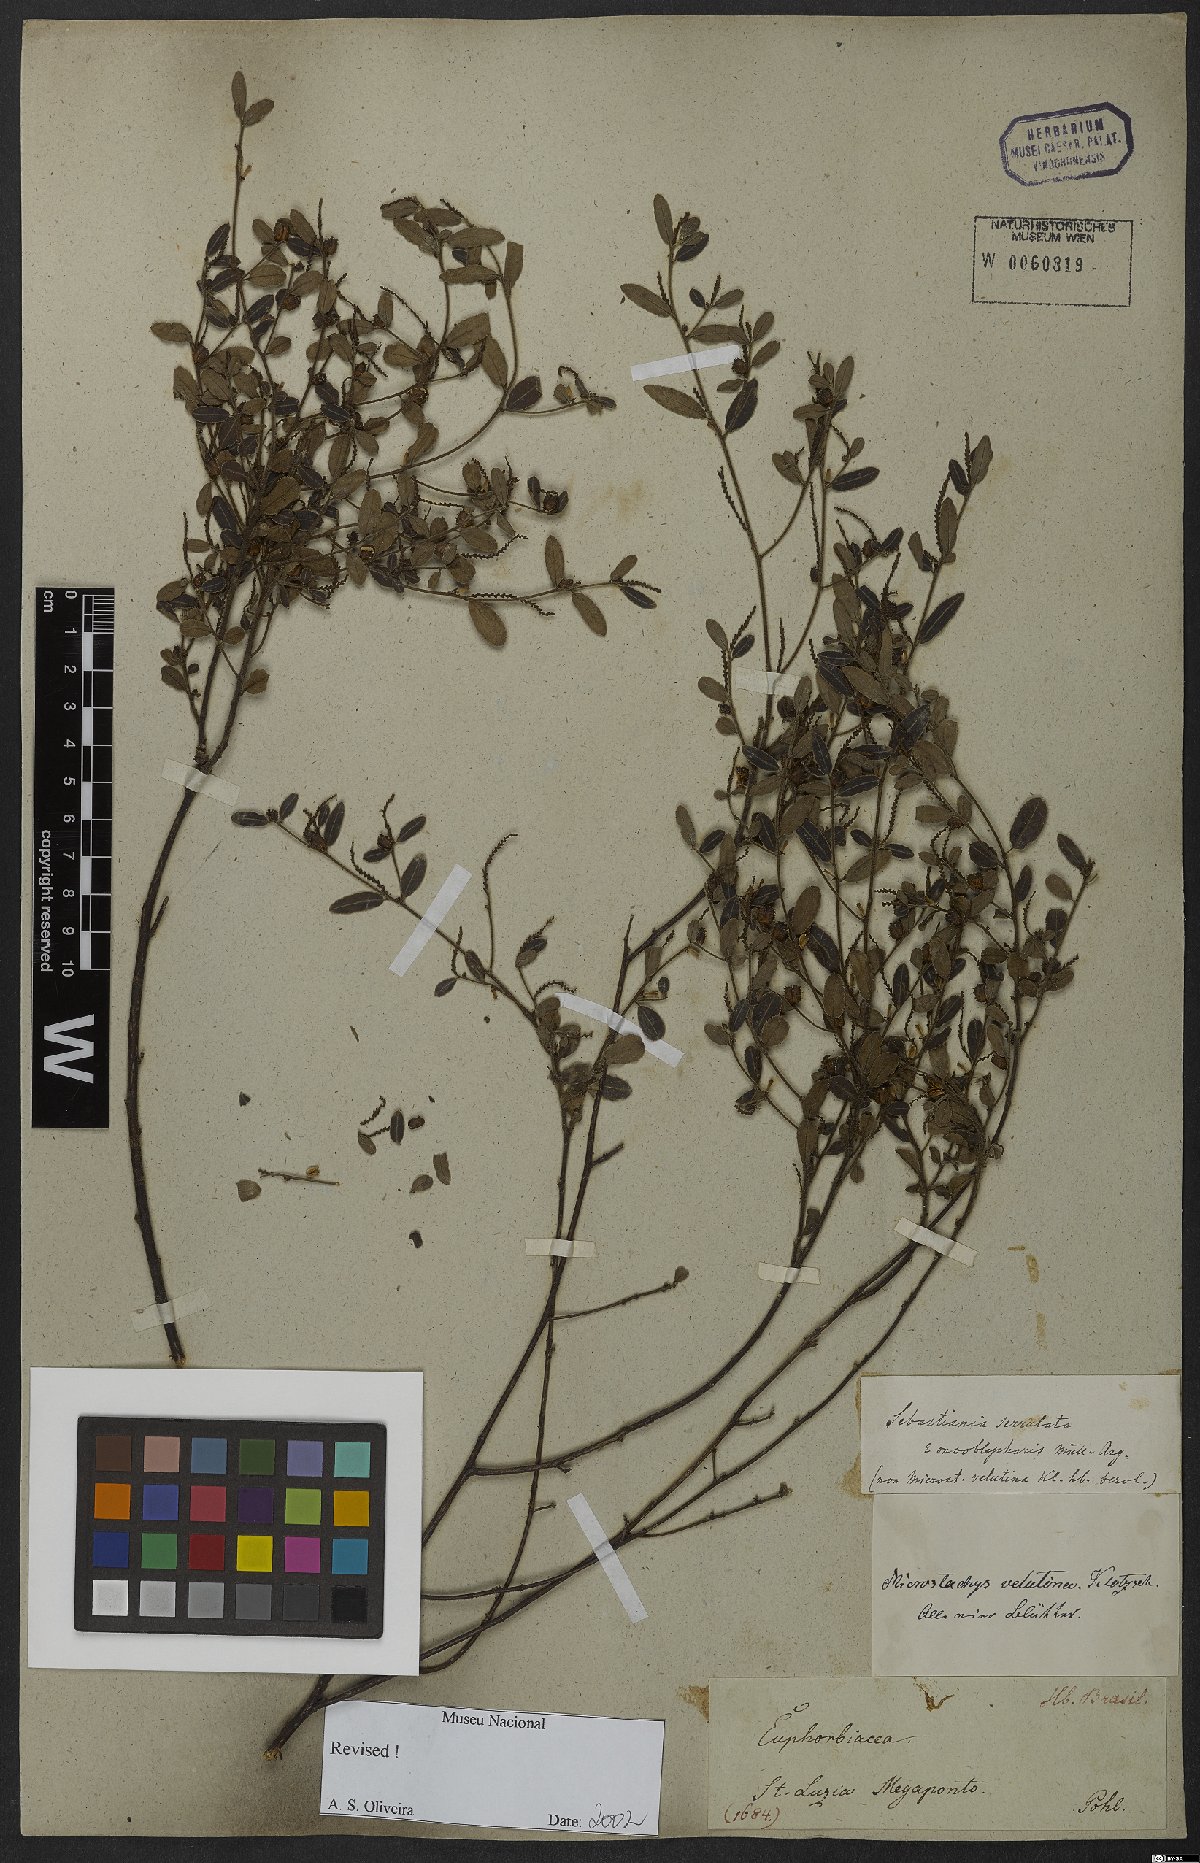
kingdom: Plantae
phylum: Tracheophyta
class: Magnoliopsida
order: Malpighiales
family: Euphorbiaceae
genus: Microstachys
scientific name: Microstachys serrulata
